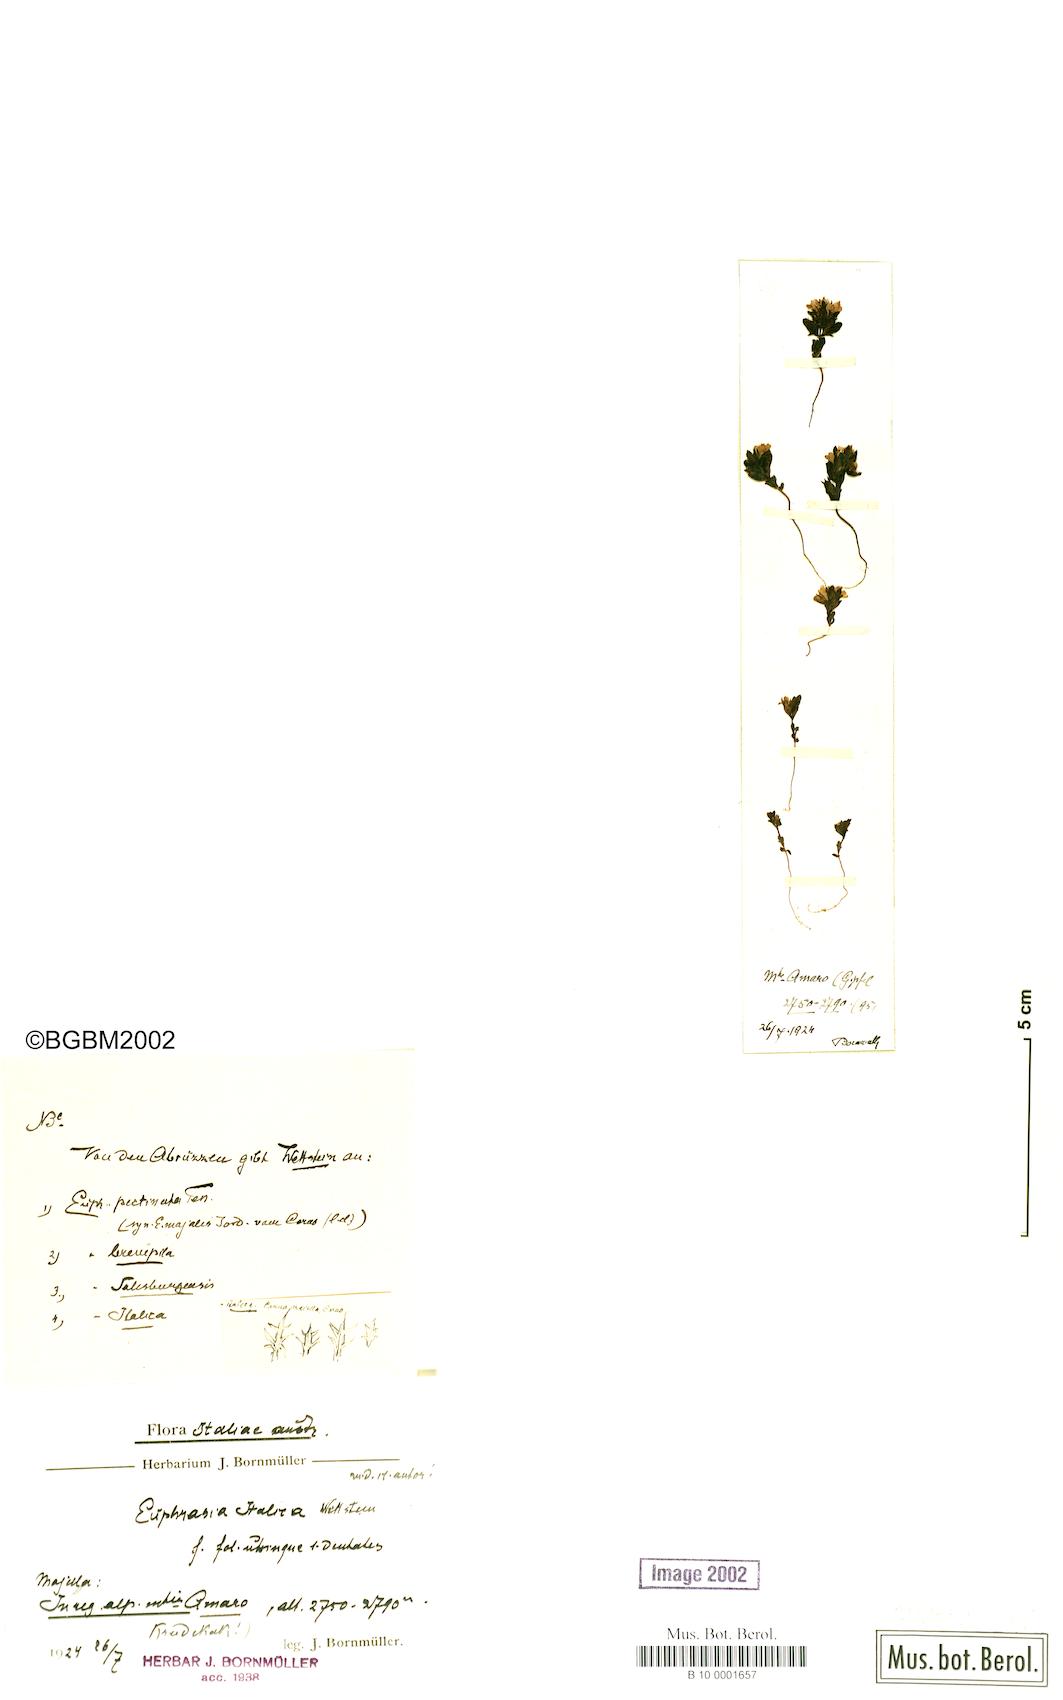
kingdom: Plantae
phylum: Tracheophyta
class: Magnoliopsida
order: Lamiales
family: Orobanchaceae
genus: Euphrasia
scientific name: Euphrasia portae
